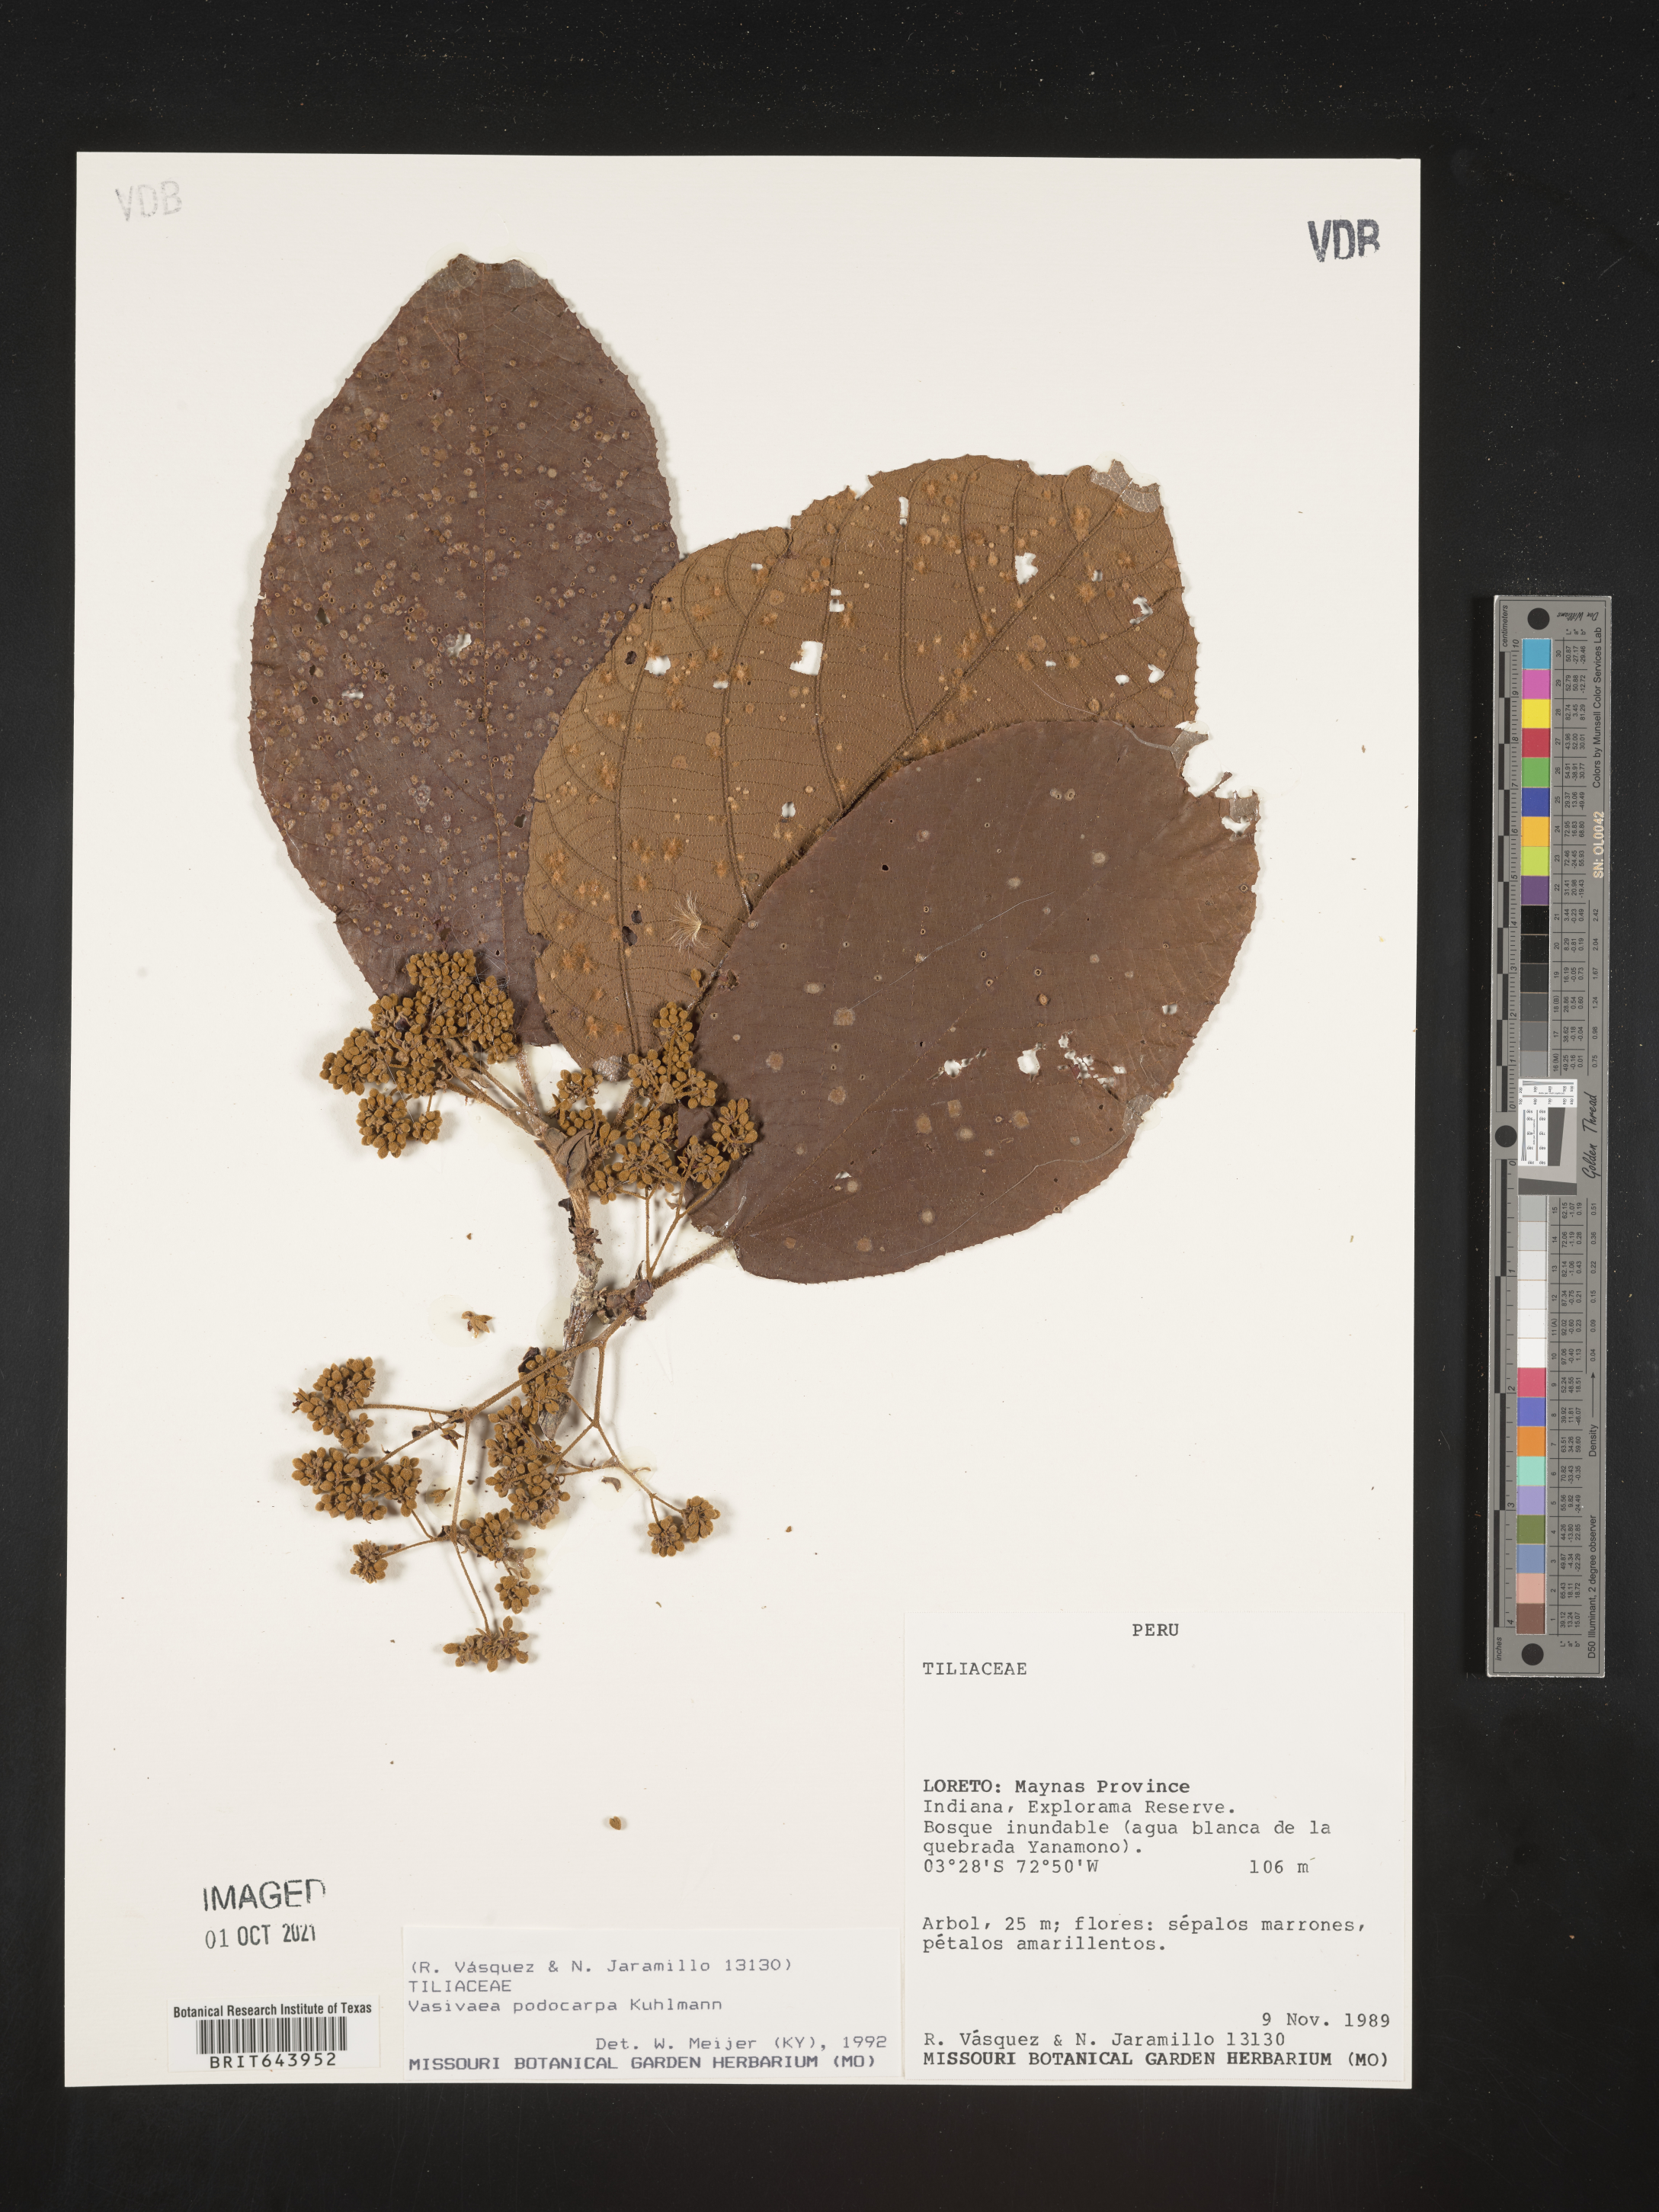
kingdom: Plantae
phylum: Tracheophyta
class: Magnoliopsida
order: Malvales
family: Malvaceae
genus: Vasivaea
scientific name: Vasivaea
